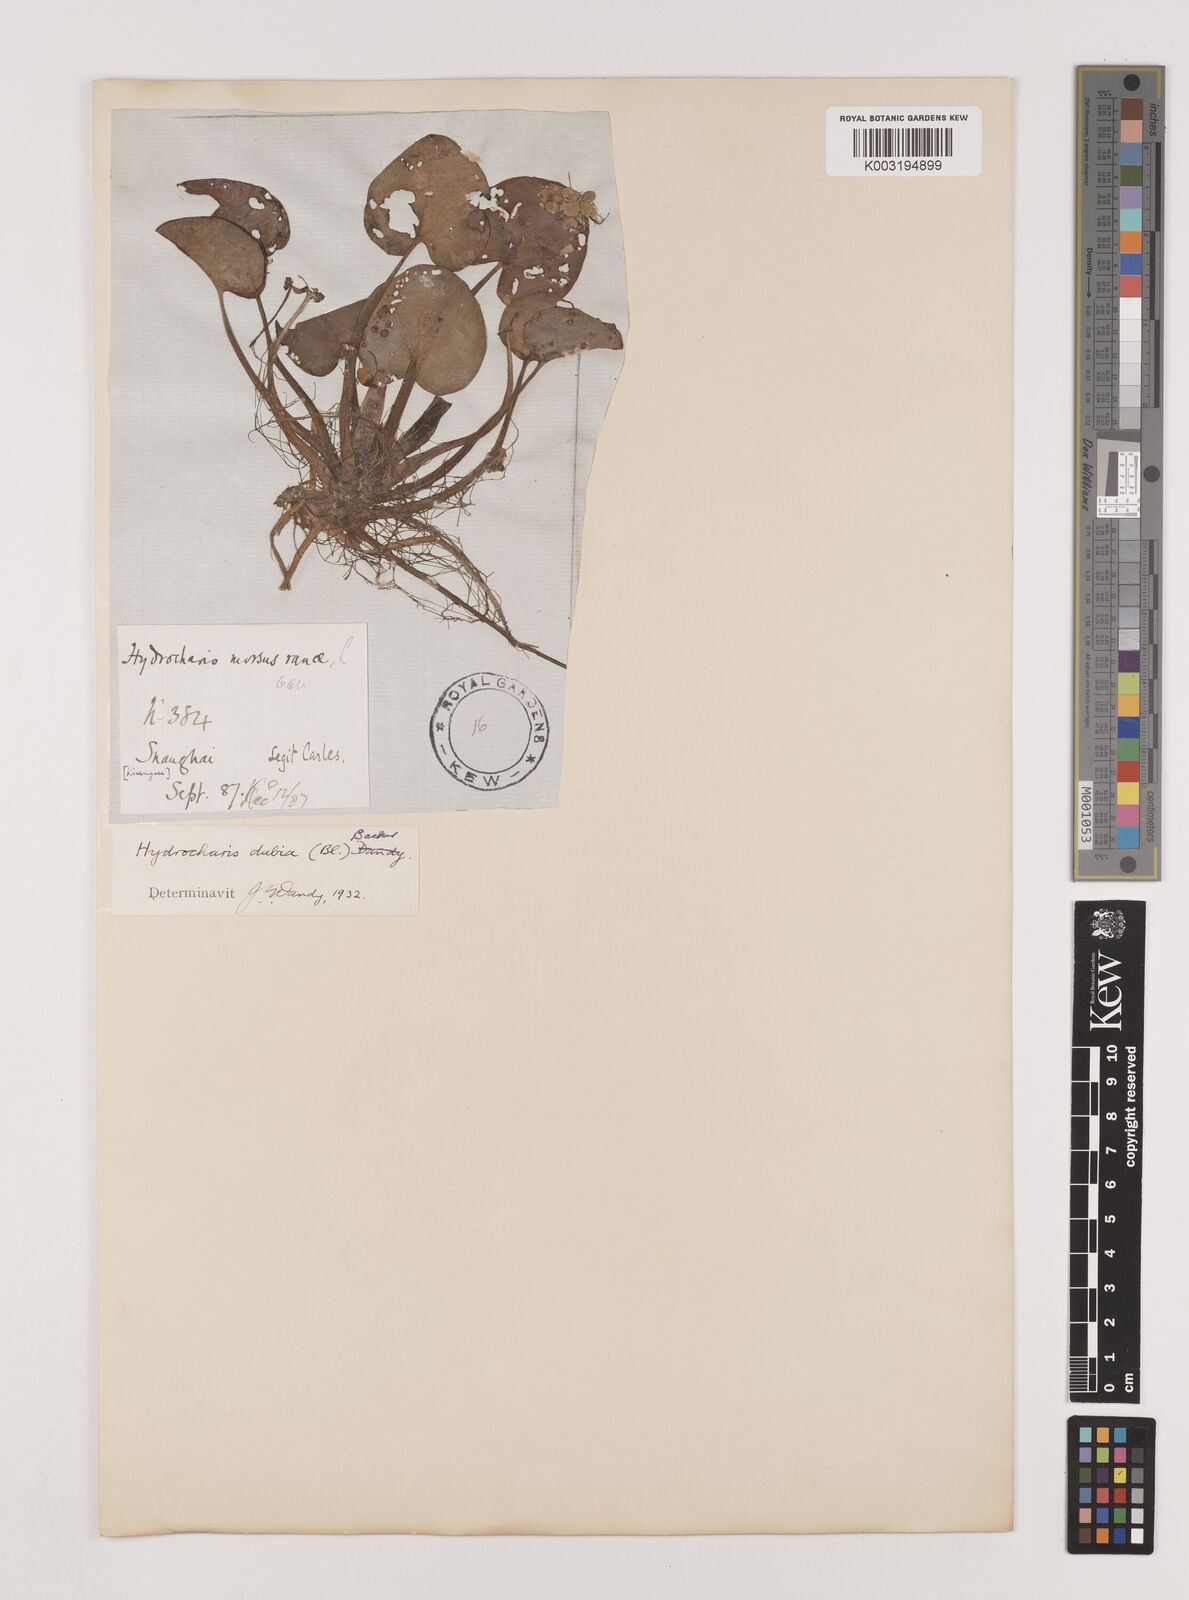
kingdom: Plantae
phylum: Tracheophyta
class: Liliopsida
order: Alismatales
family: Hydrocharitaceae
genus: Hydrocharis
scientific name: Hydrocharis dubia
